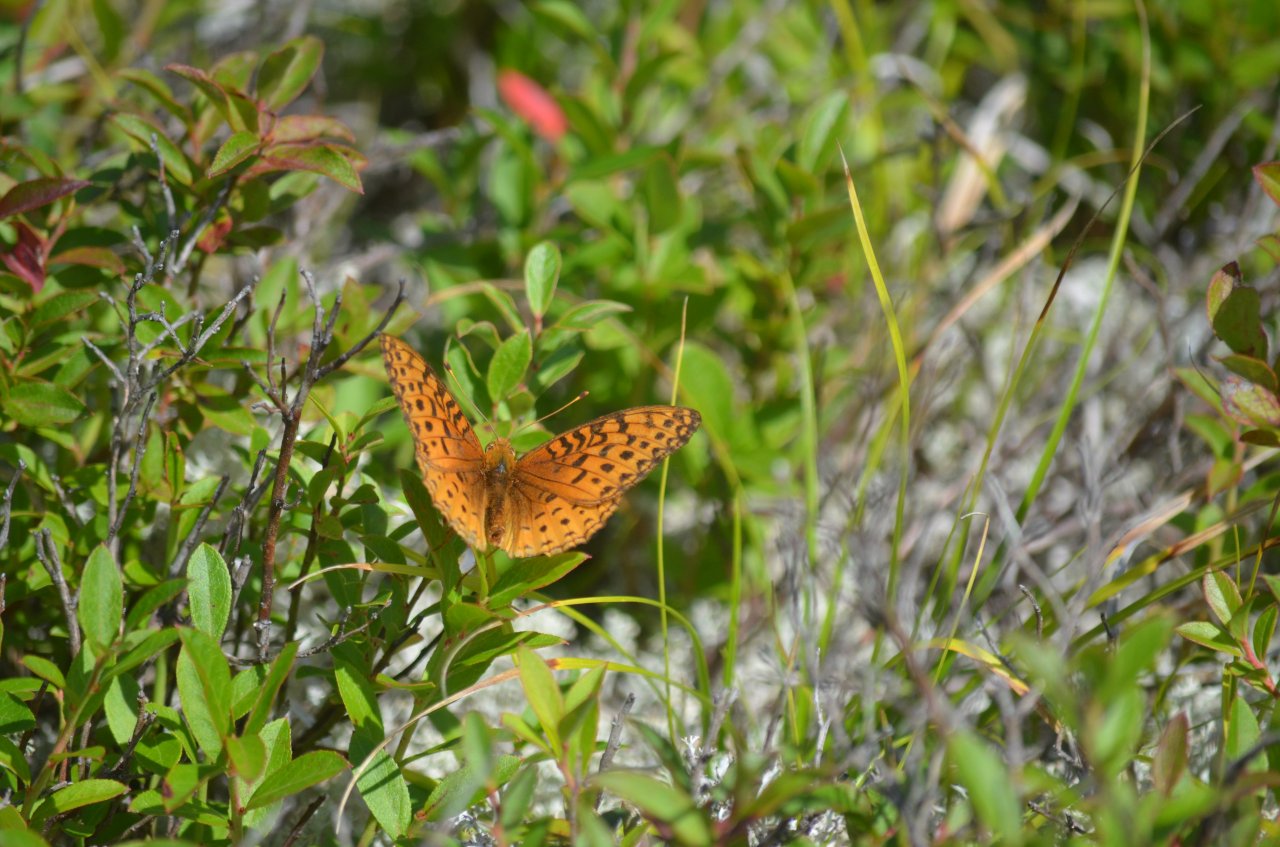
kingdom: Animalia
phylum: Arthropoda
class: Insecta
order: Lepidoptera
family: Nymphalidae
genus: Speyeria
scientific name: Speyeria aphrodite
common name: Aphrodite Fritillary
